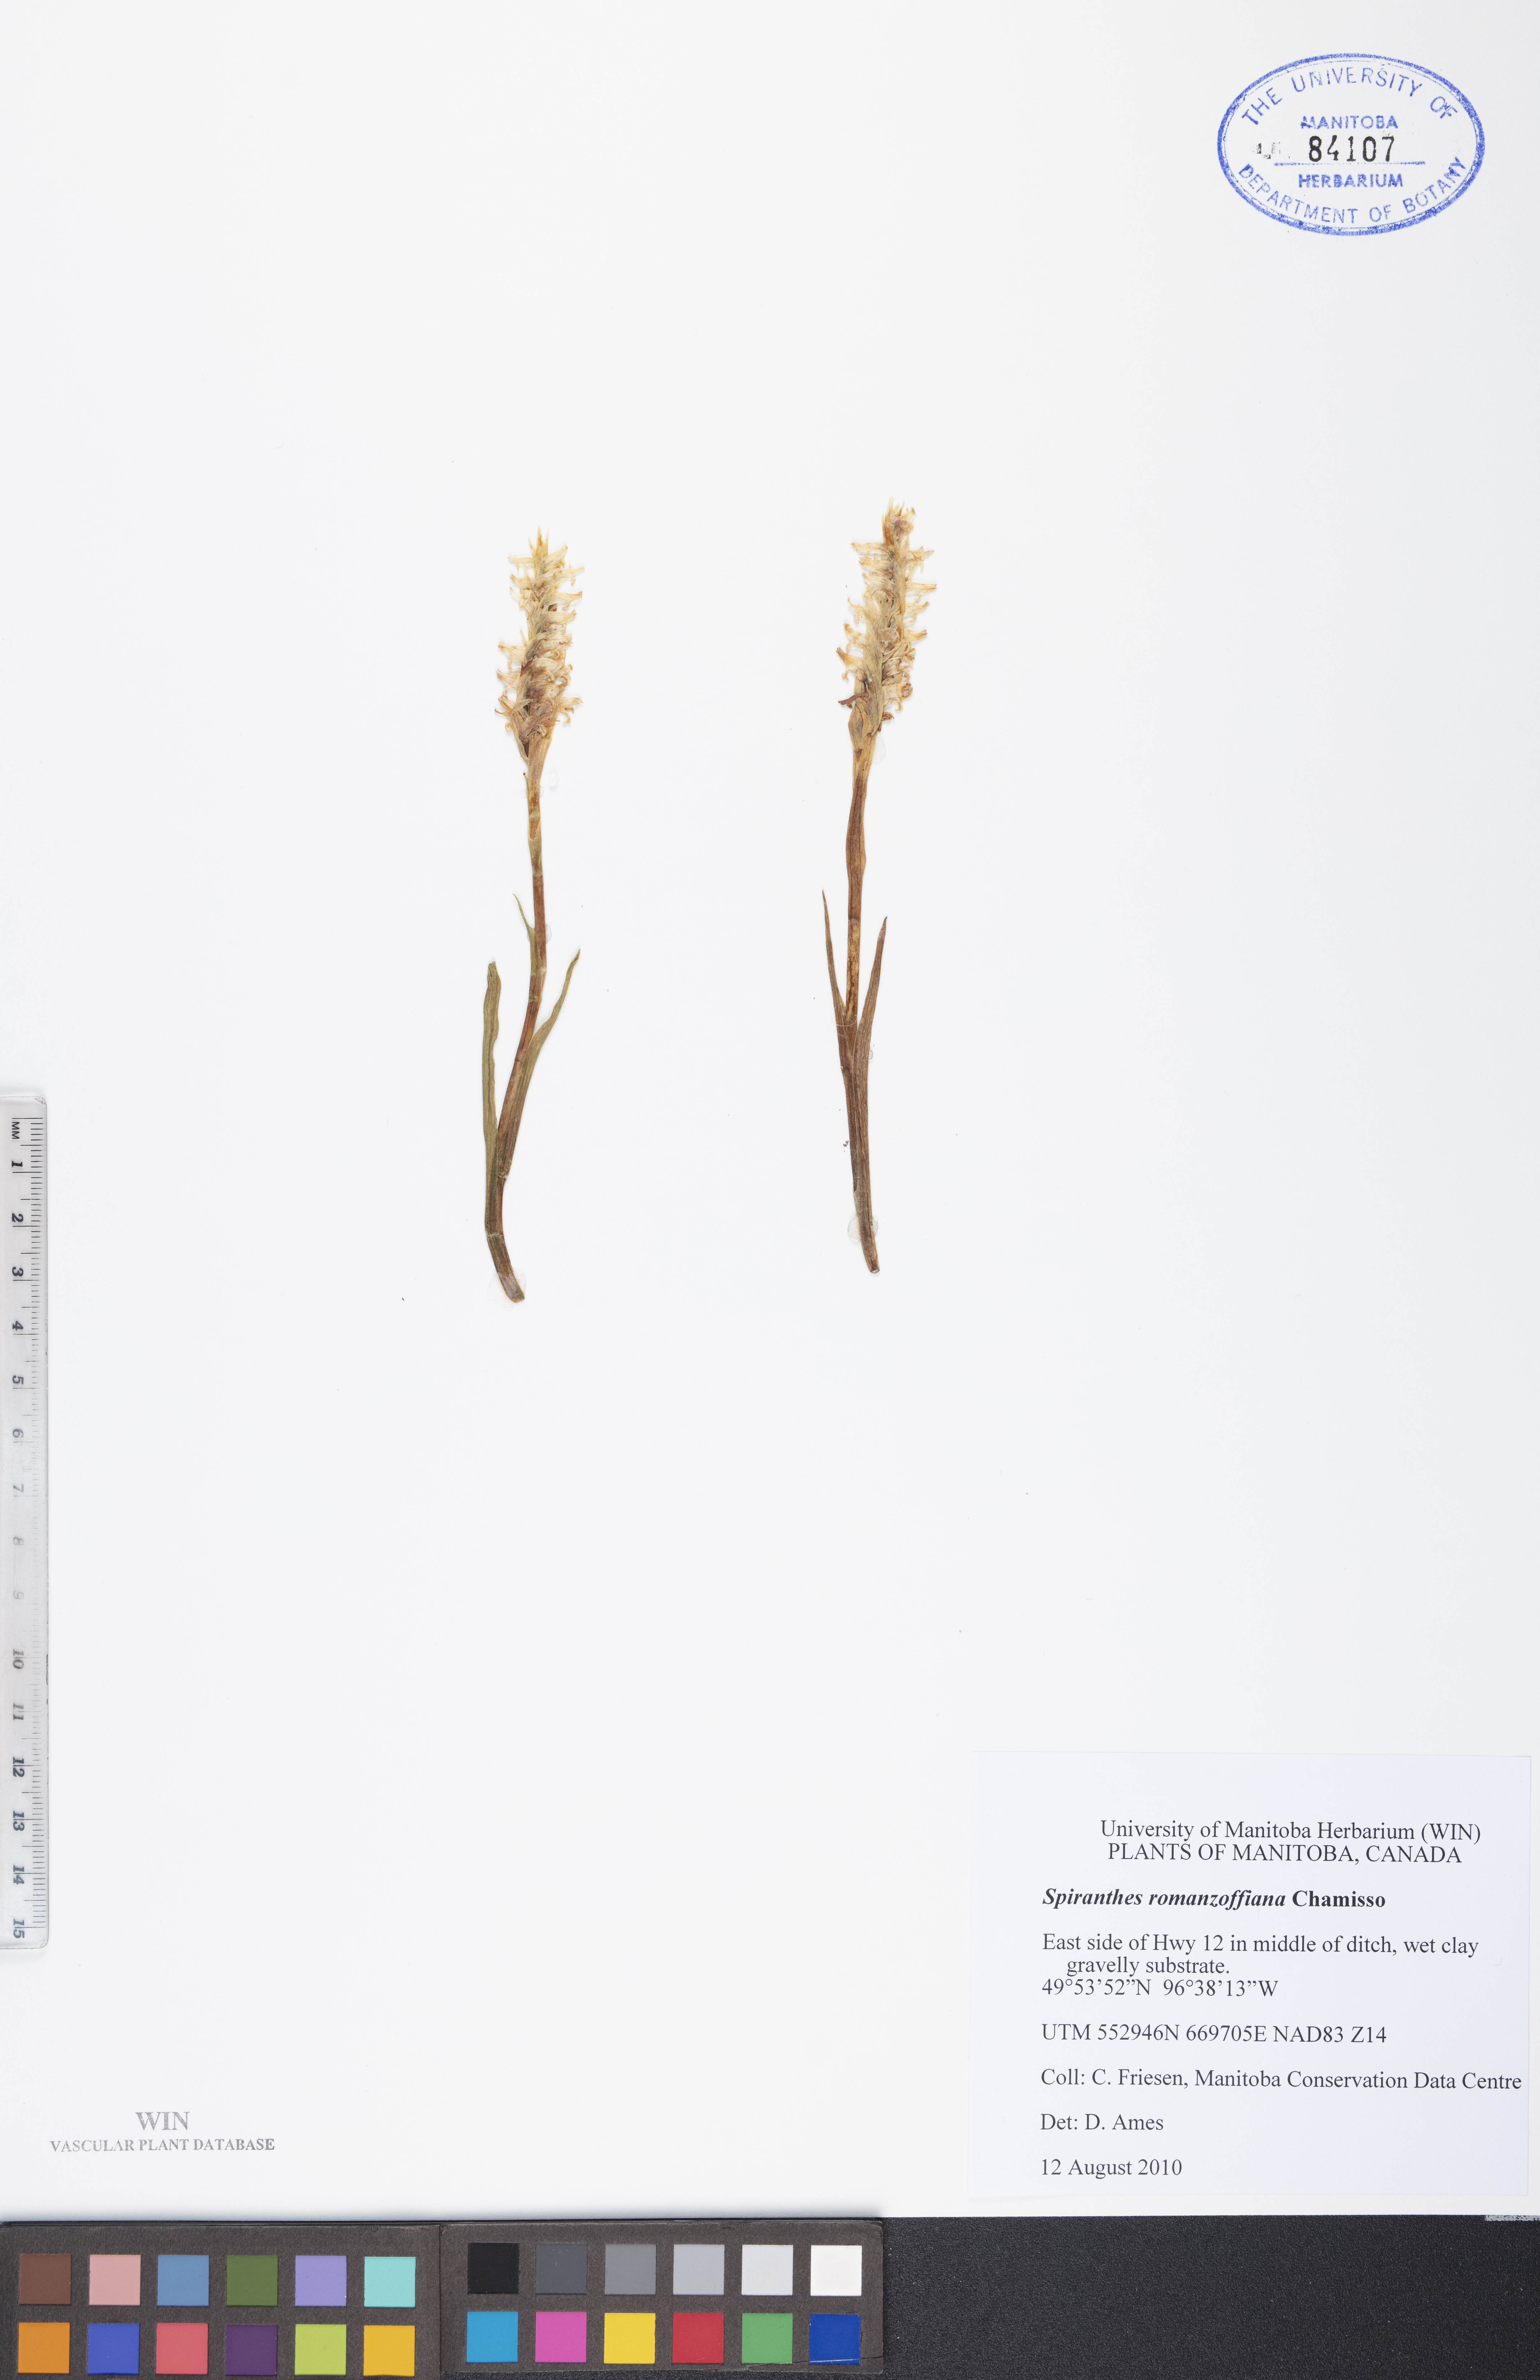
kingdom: Plantae
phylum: Tracheophyta
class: Liliopsida
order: Asparagales
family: Orchidaceae
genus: Spiranthes
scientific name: Spiranthes romanzoffiana
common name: Irish lady's-tresses
